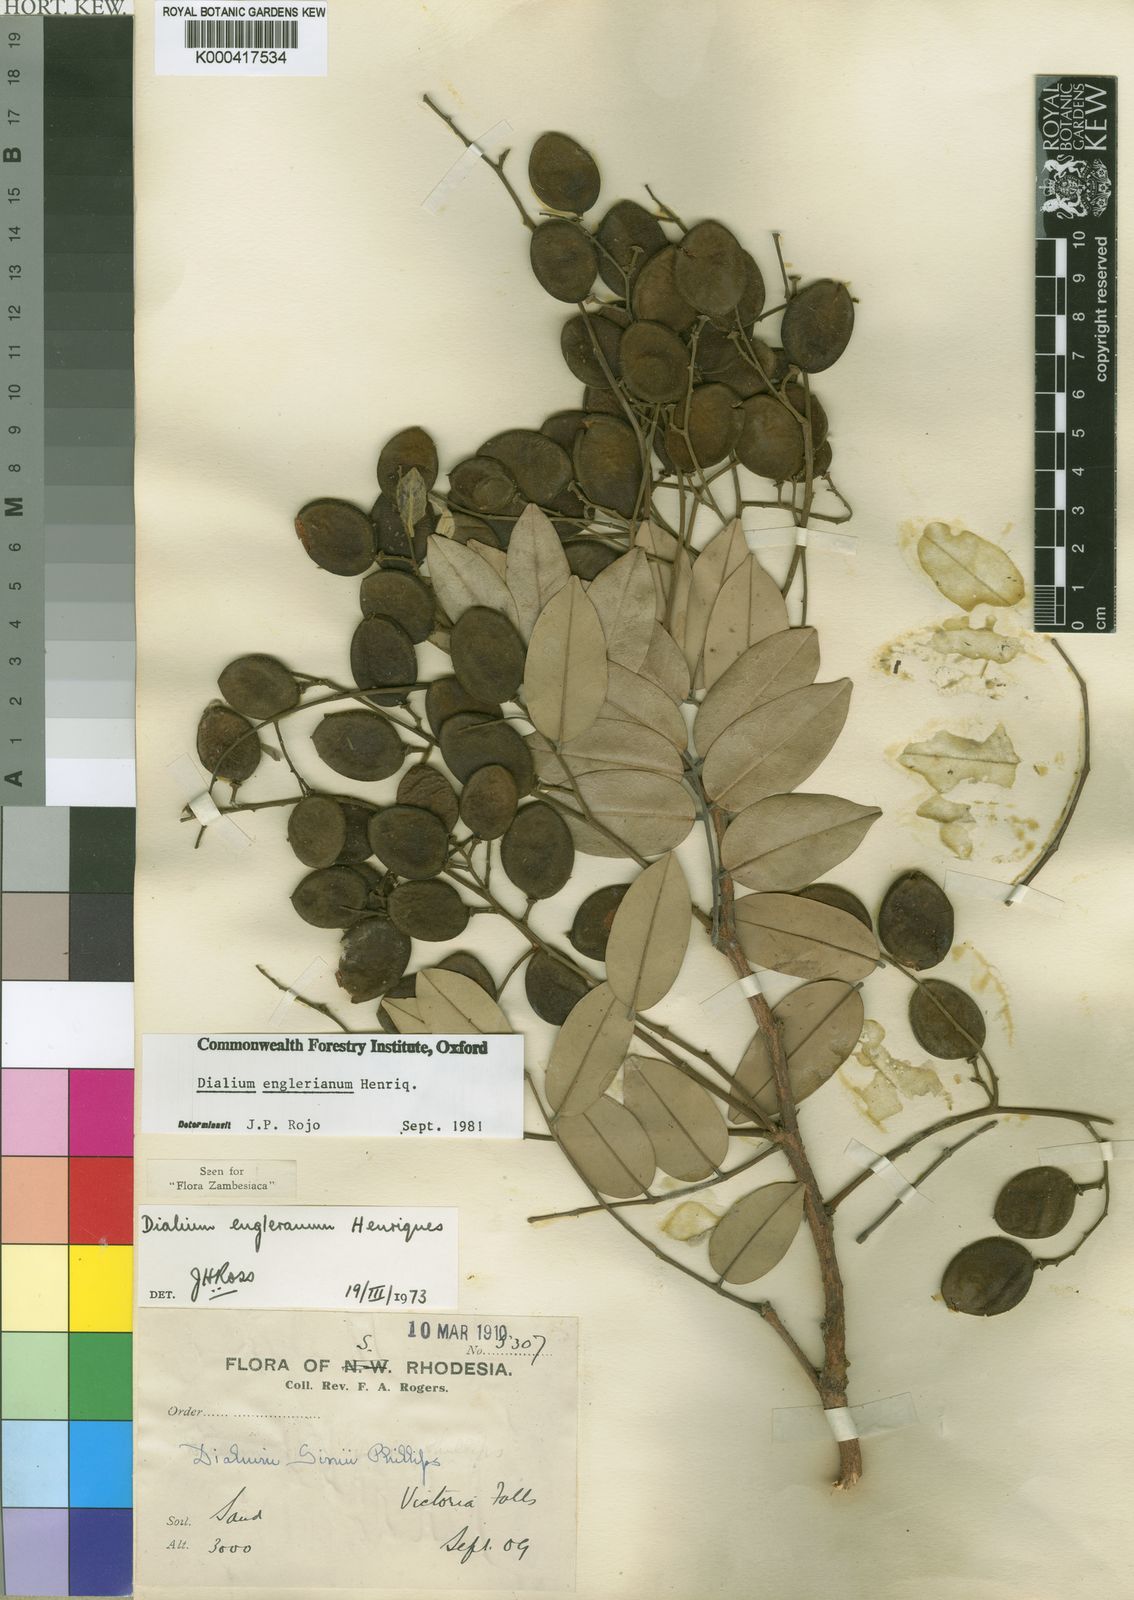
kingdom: Plantae
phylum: Tracheophyta
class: Magnoliopsida
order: Fabales
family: Fabaceae
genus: Dialium
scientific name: Dialium
